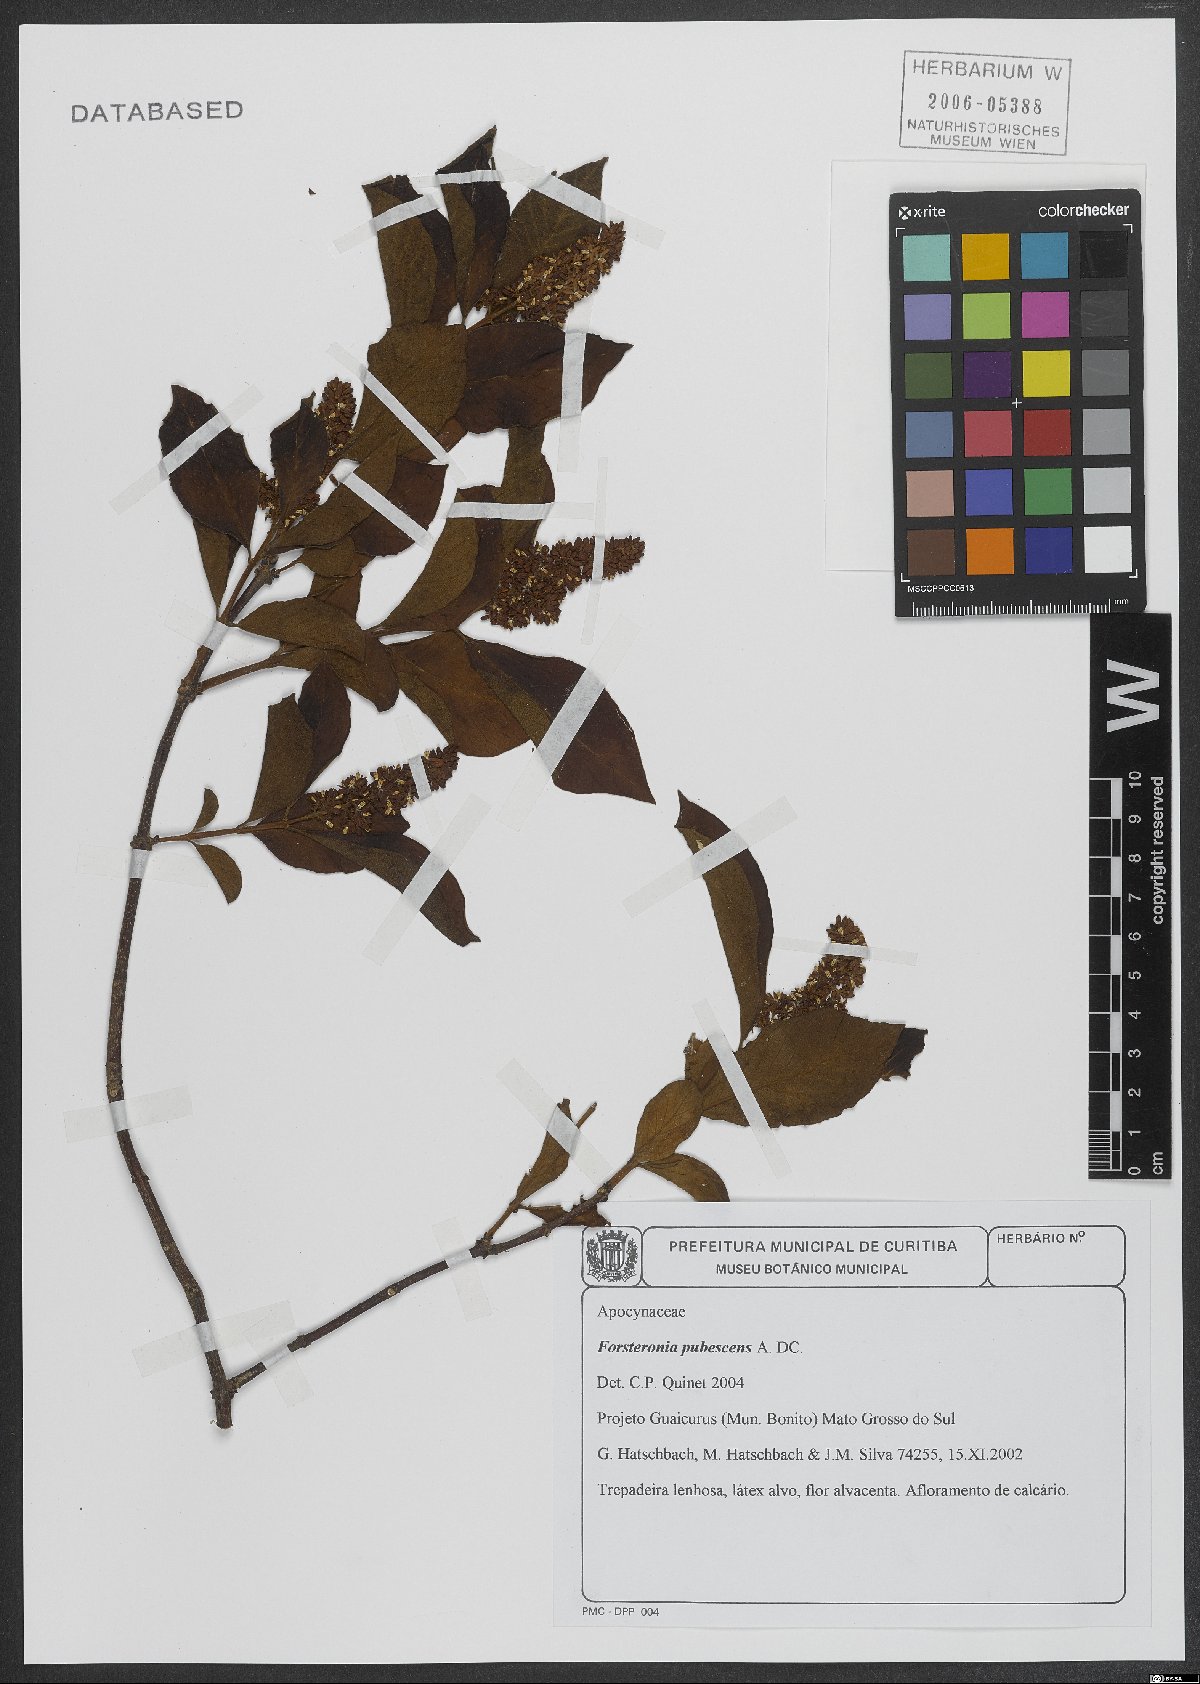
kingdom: Plantae
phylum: Tracheophyta
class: Magnoliopsida
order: Gentianales
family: Apocynaceae
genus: Forsteronia
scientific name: Forsteronia pubescens
